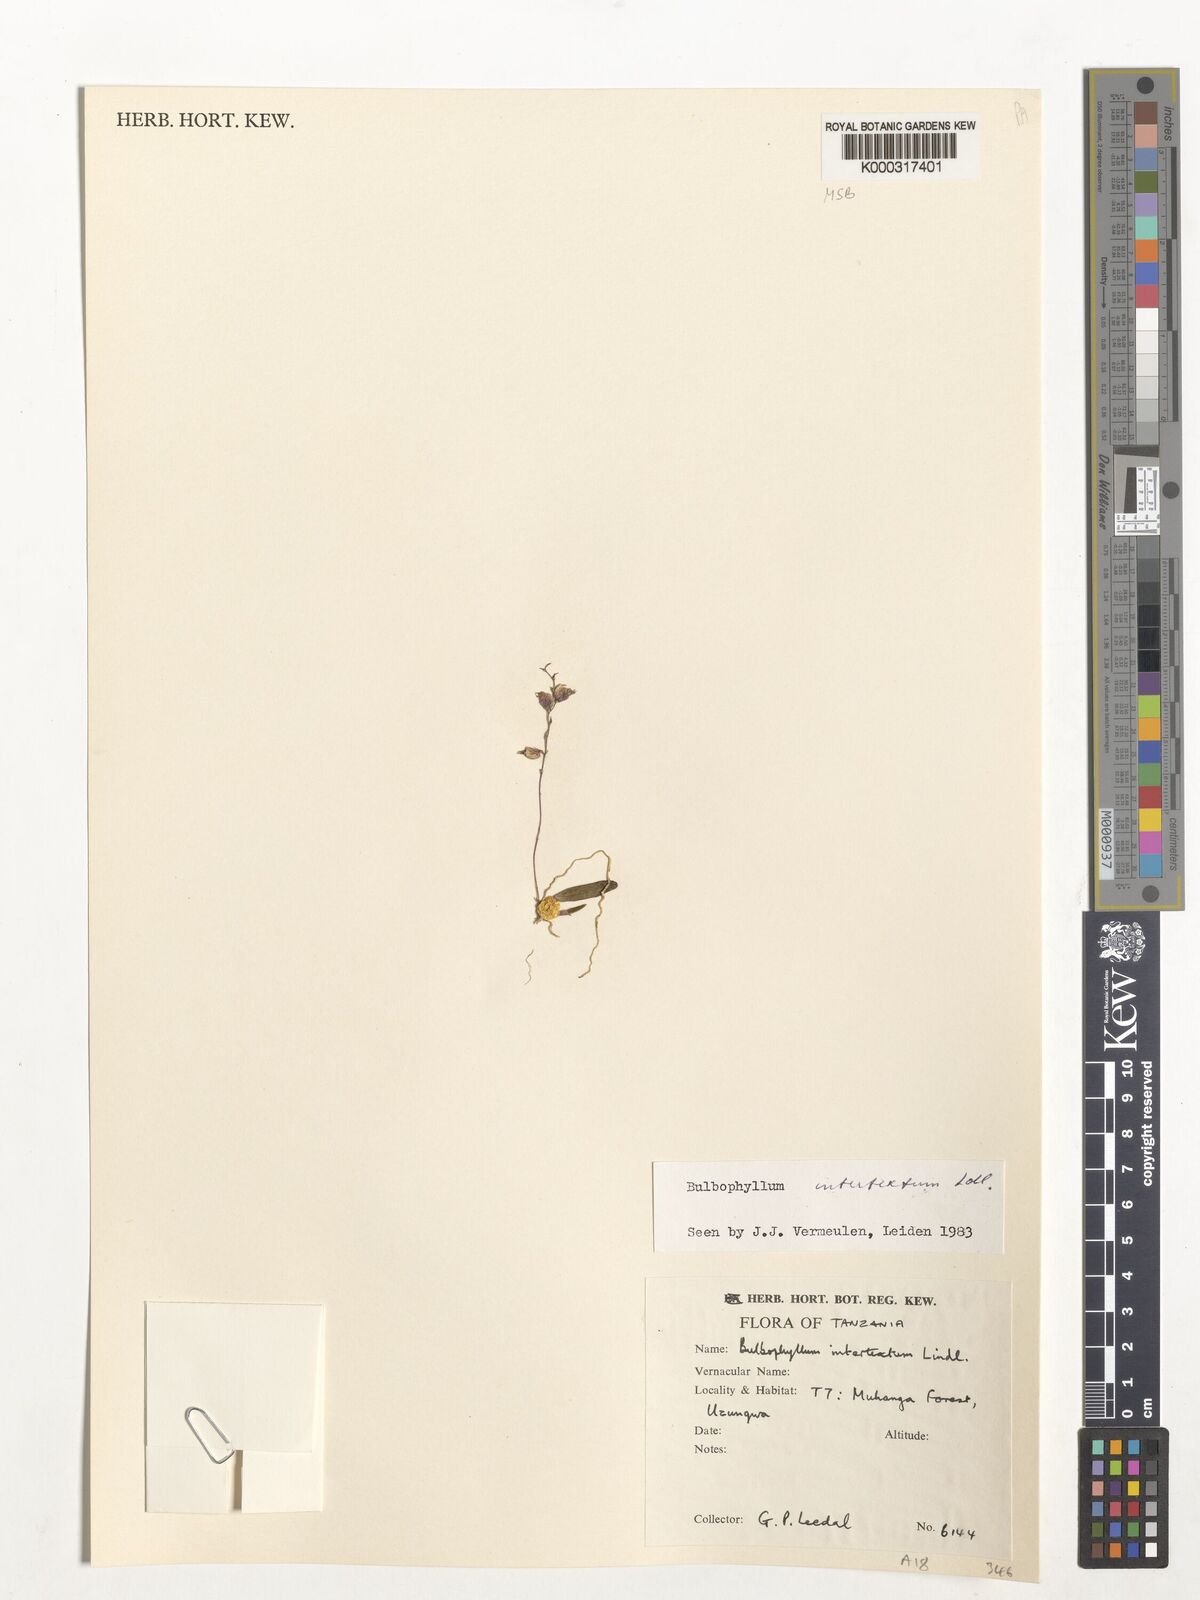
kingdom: Plantae
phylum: Tracheophyta
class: Liliopsida
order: Asparagales
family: Orchidaceae
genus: Bulbophyllum
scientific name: Bulbophyllum intertextum
